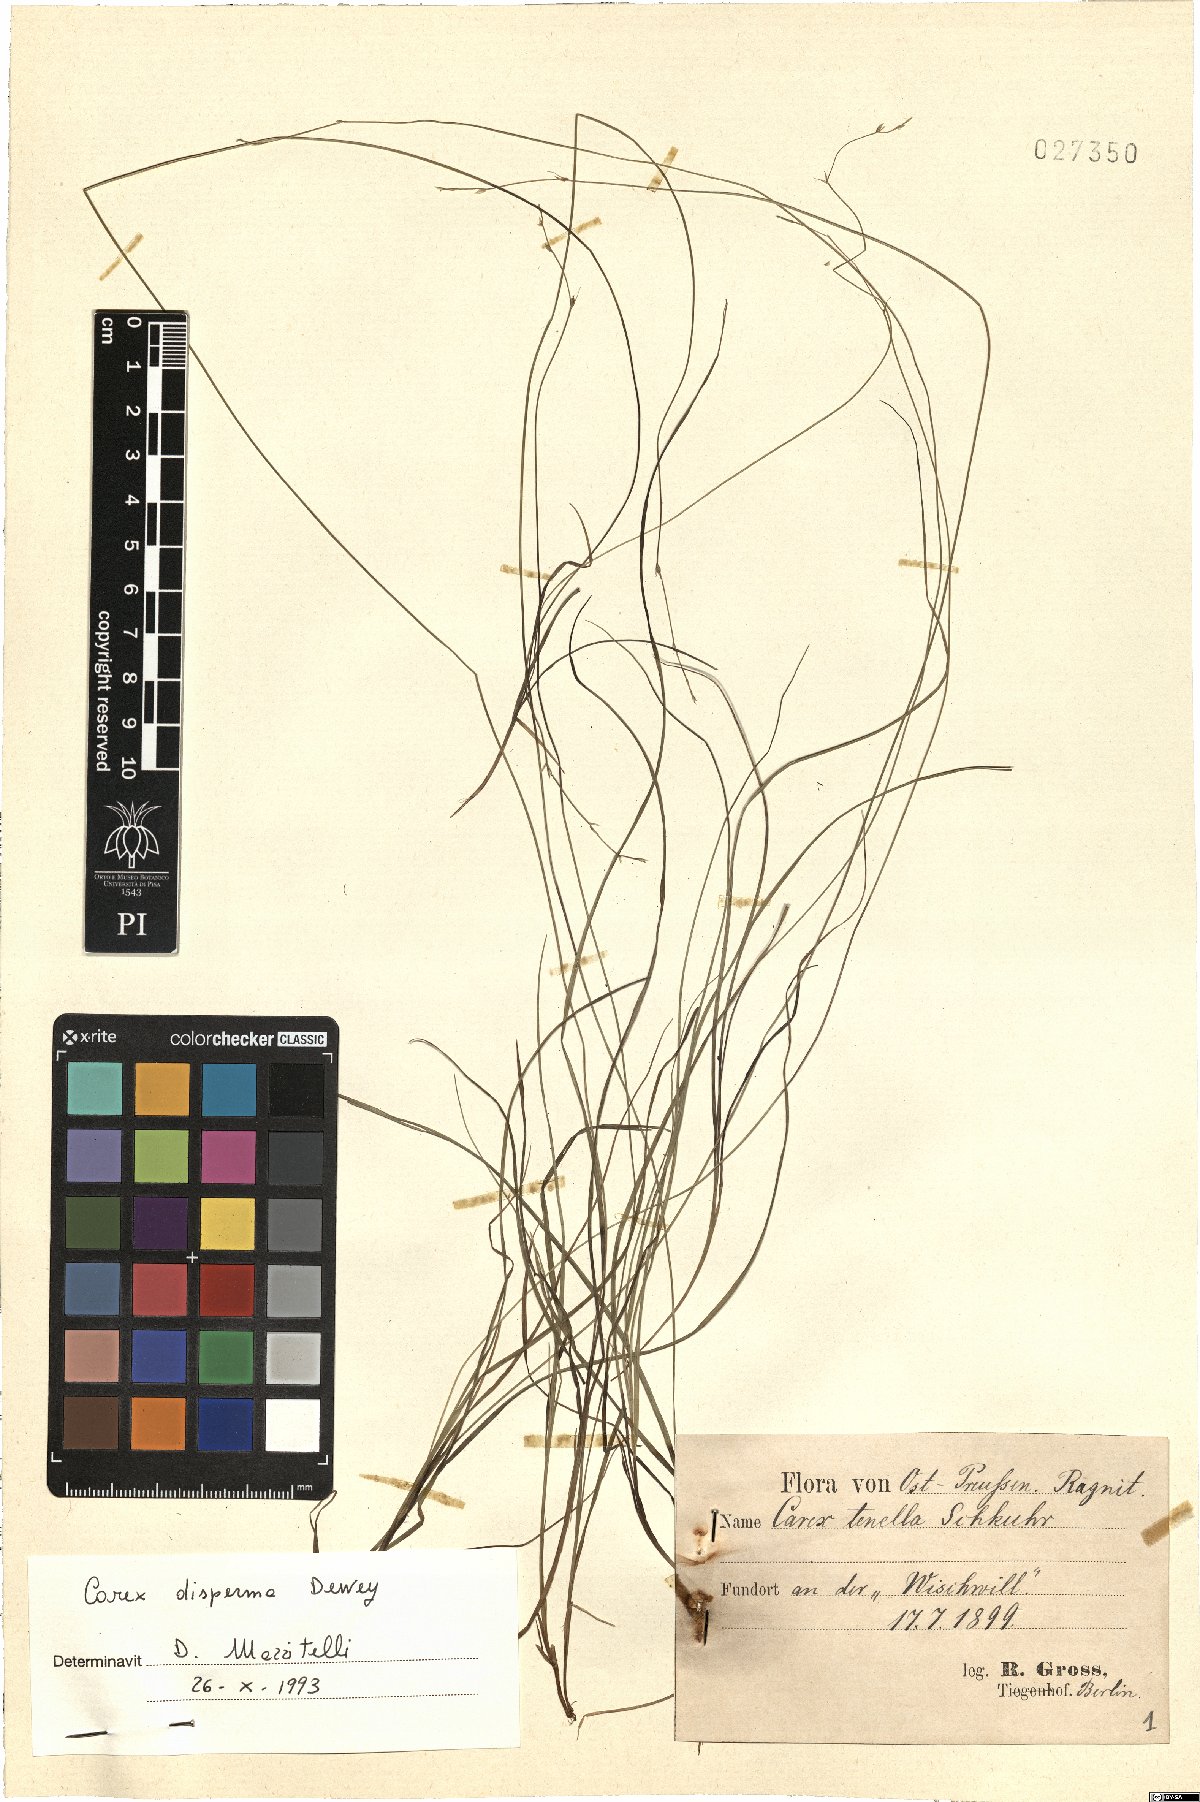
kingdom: Plantae
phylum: Tracheophyta
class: Liliopsida
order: Poales
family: Cyperaceae
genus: Carex
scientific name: Carex disperma
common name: Short-leaved sedge
